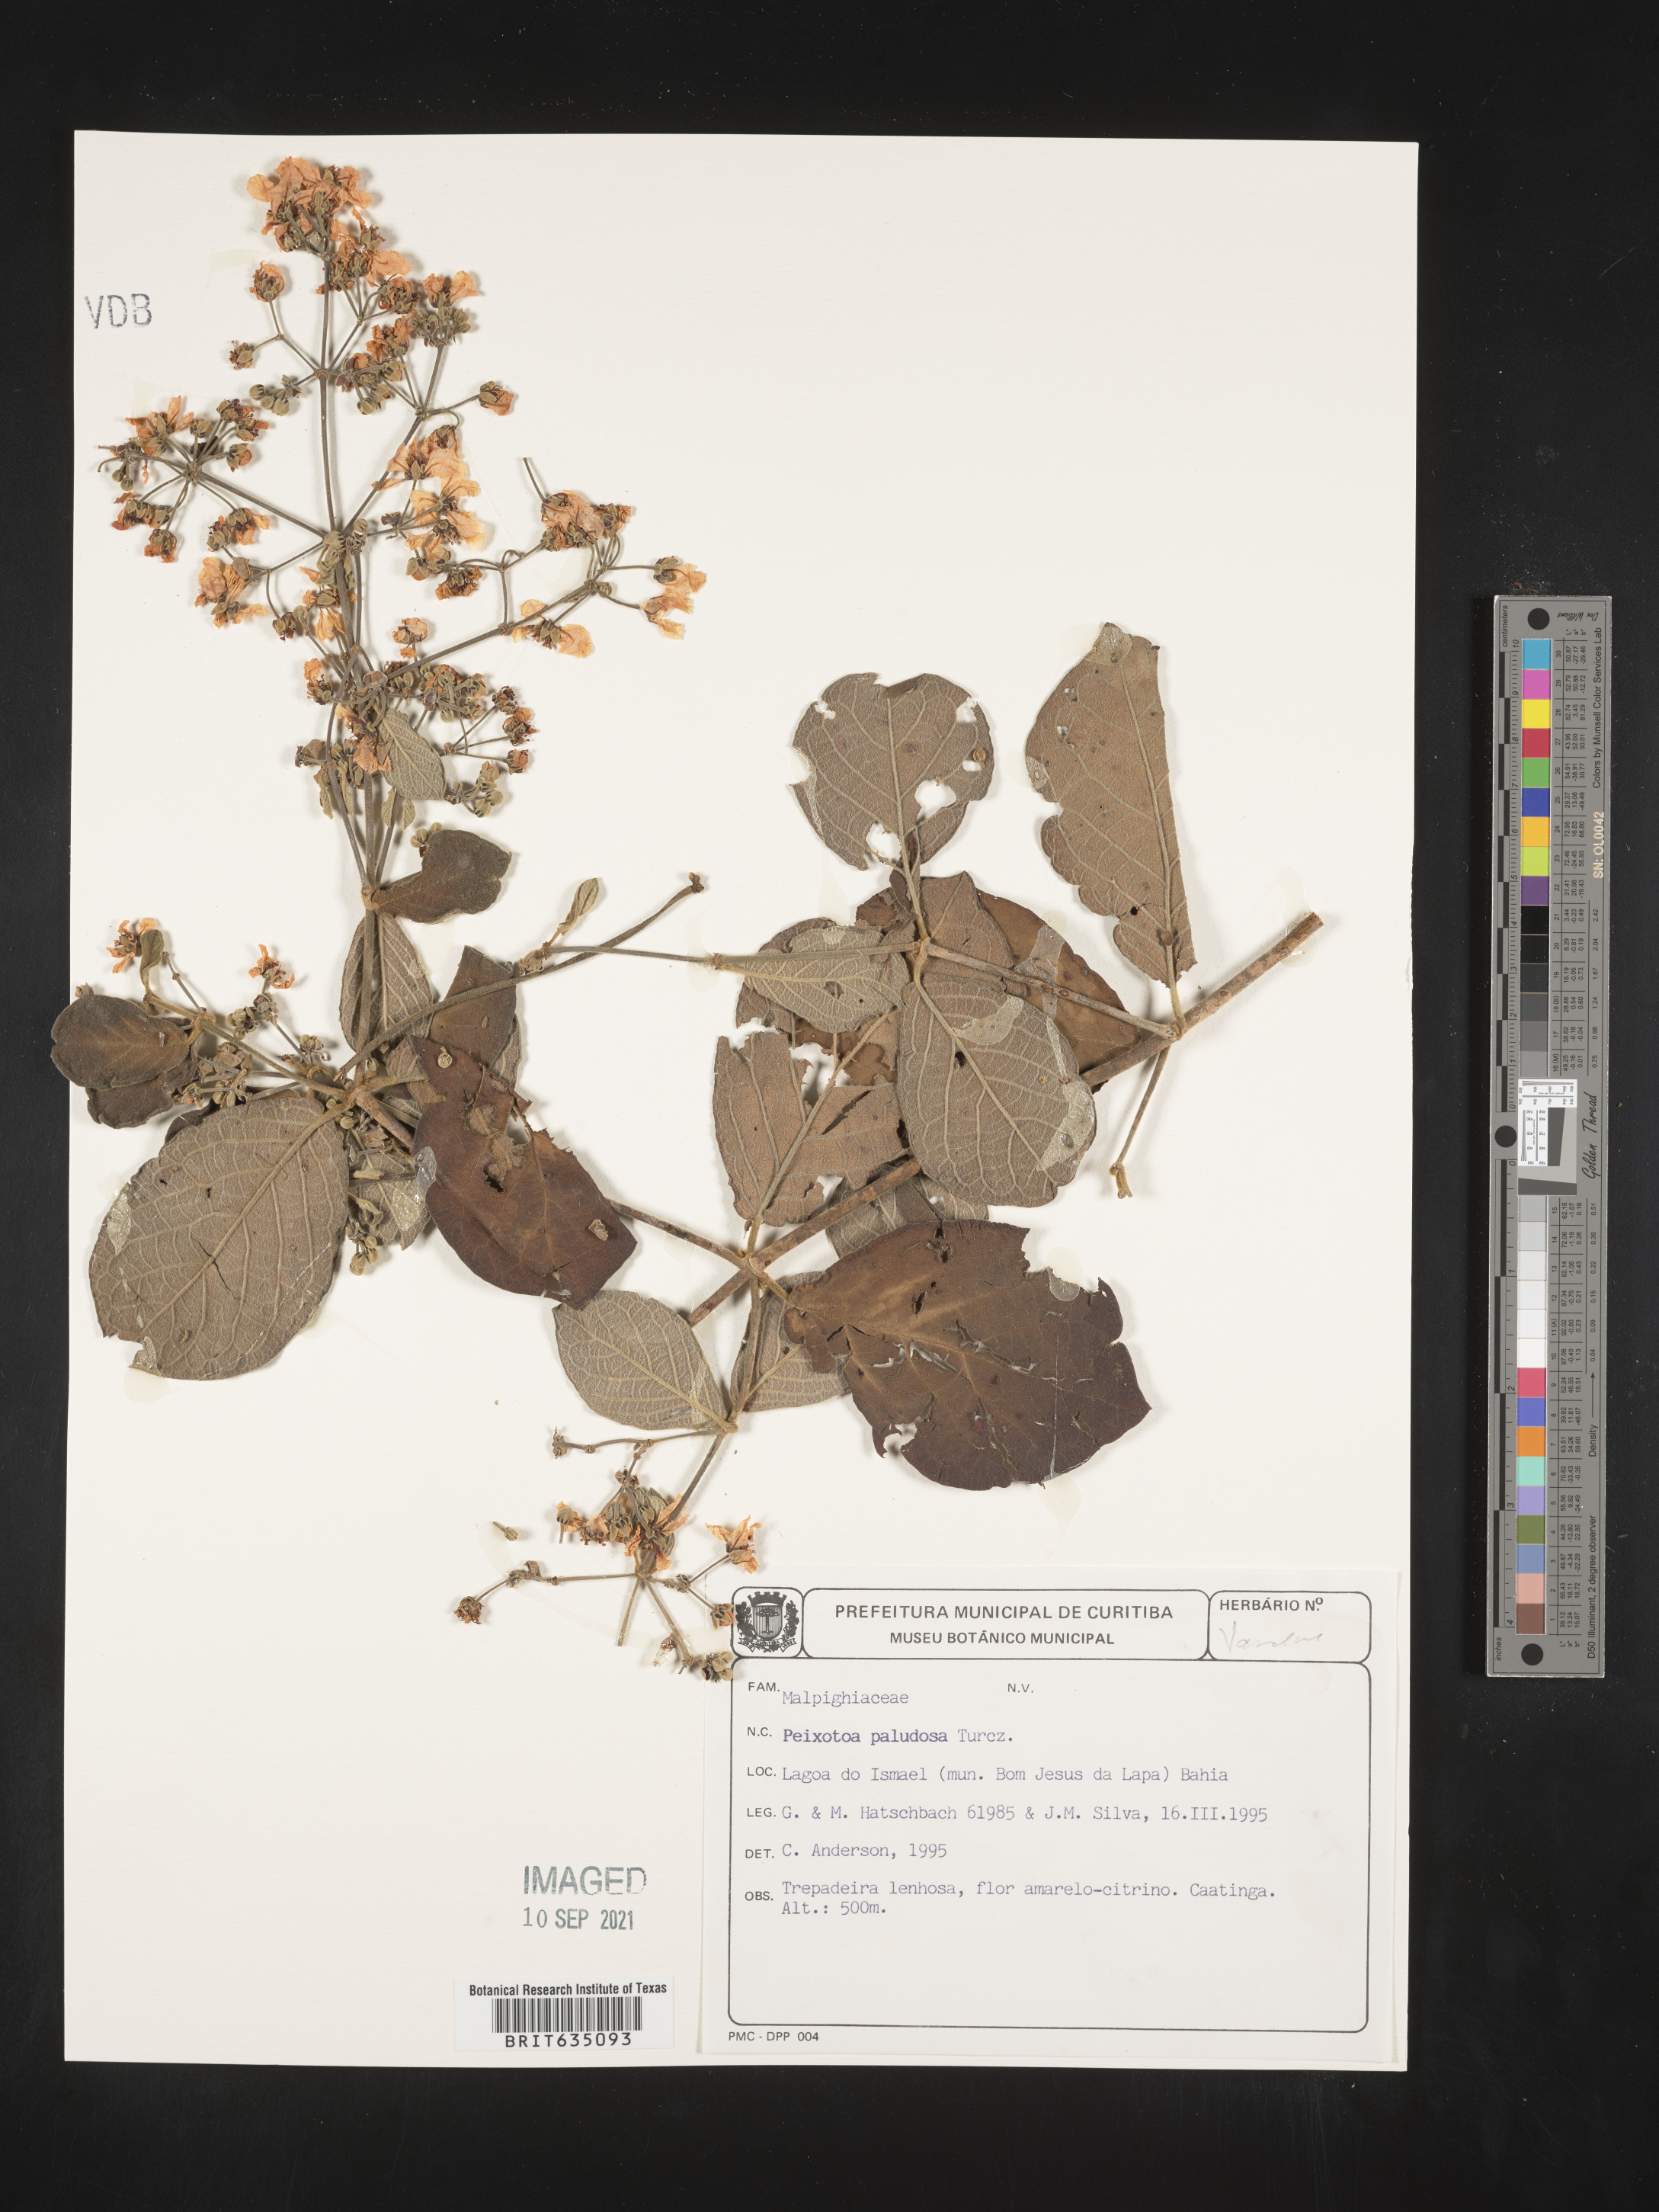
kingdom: Plantae
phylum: Tracheophyta
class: Magnoliopsida
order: Malpighiales
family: Malpighiaceae
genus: Peixotoa
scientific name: Peixotoa
